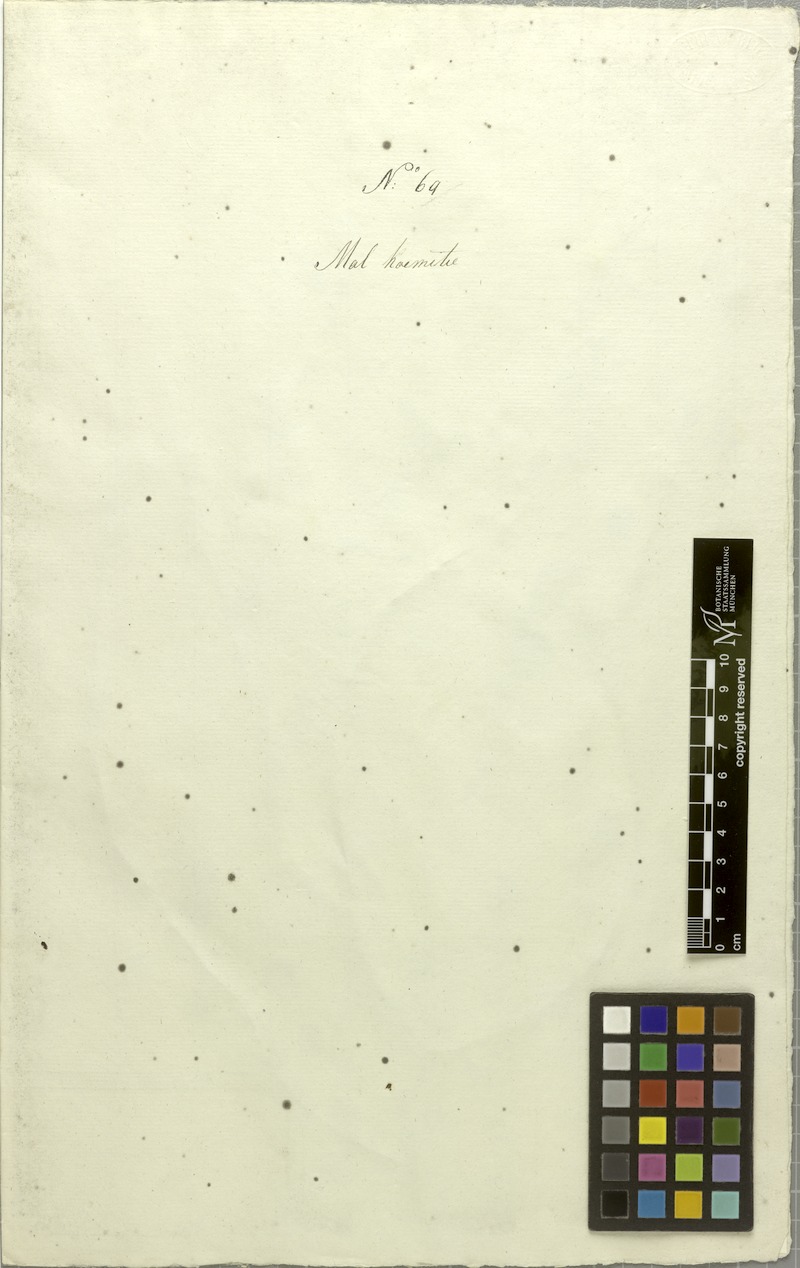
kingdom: Plantae
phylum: Tracheophyta
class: Magnoliopsida
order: Caryophyllales
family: Amaranthaceae
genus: Allmania
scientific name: Allmania nodiflora
